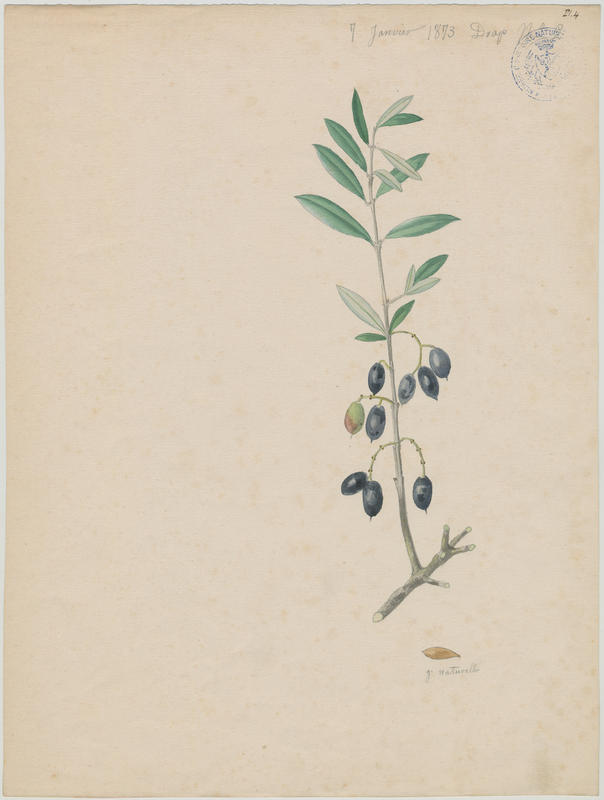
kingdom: Plantae
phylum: Tracheophyta
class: Magnoliopsida
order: Lamiales
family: Oleaceae
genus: Olea
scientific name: Olea europaea
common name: Olive
